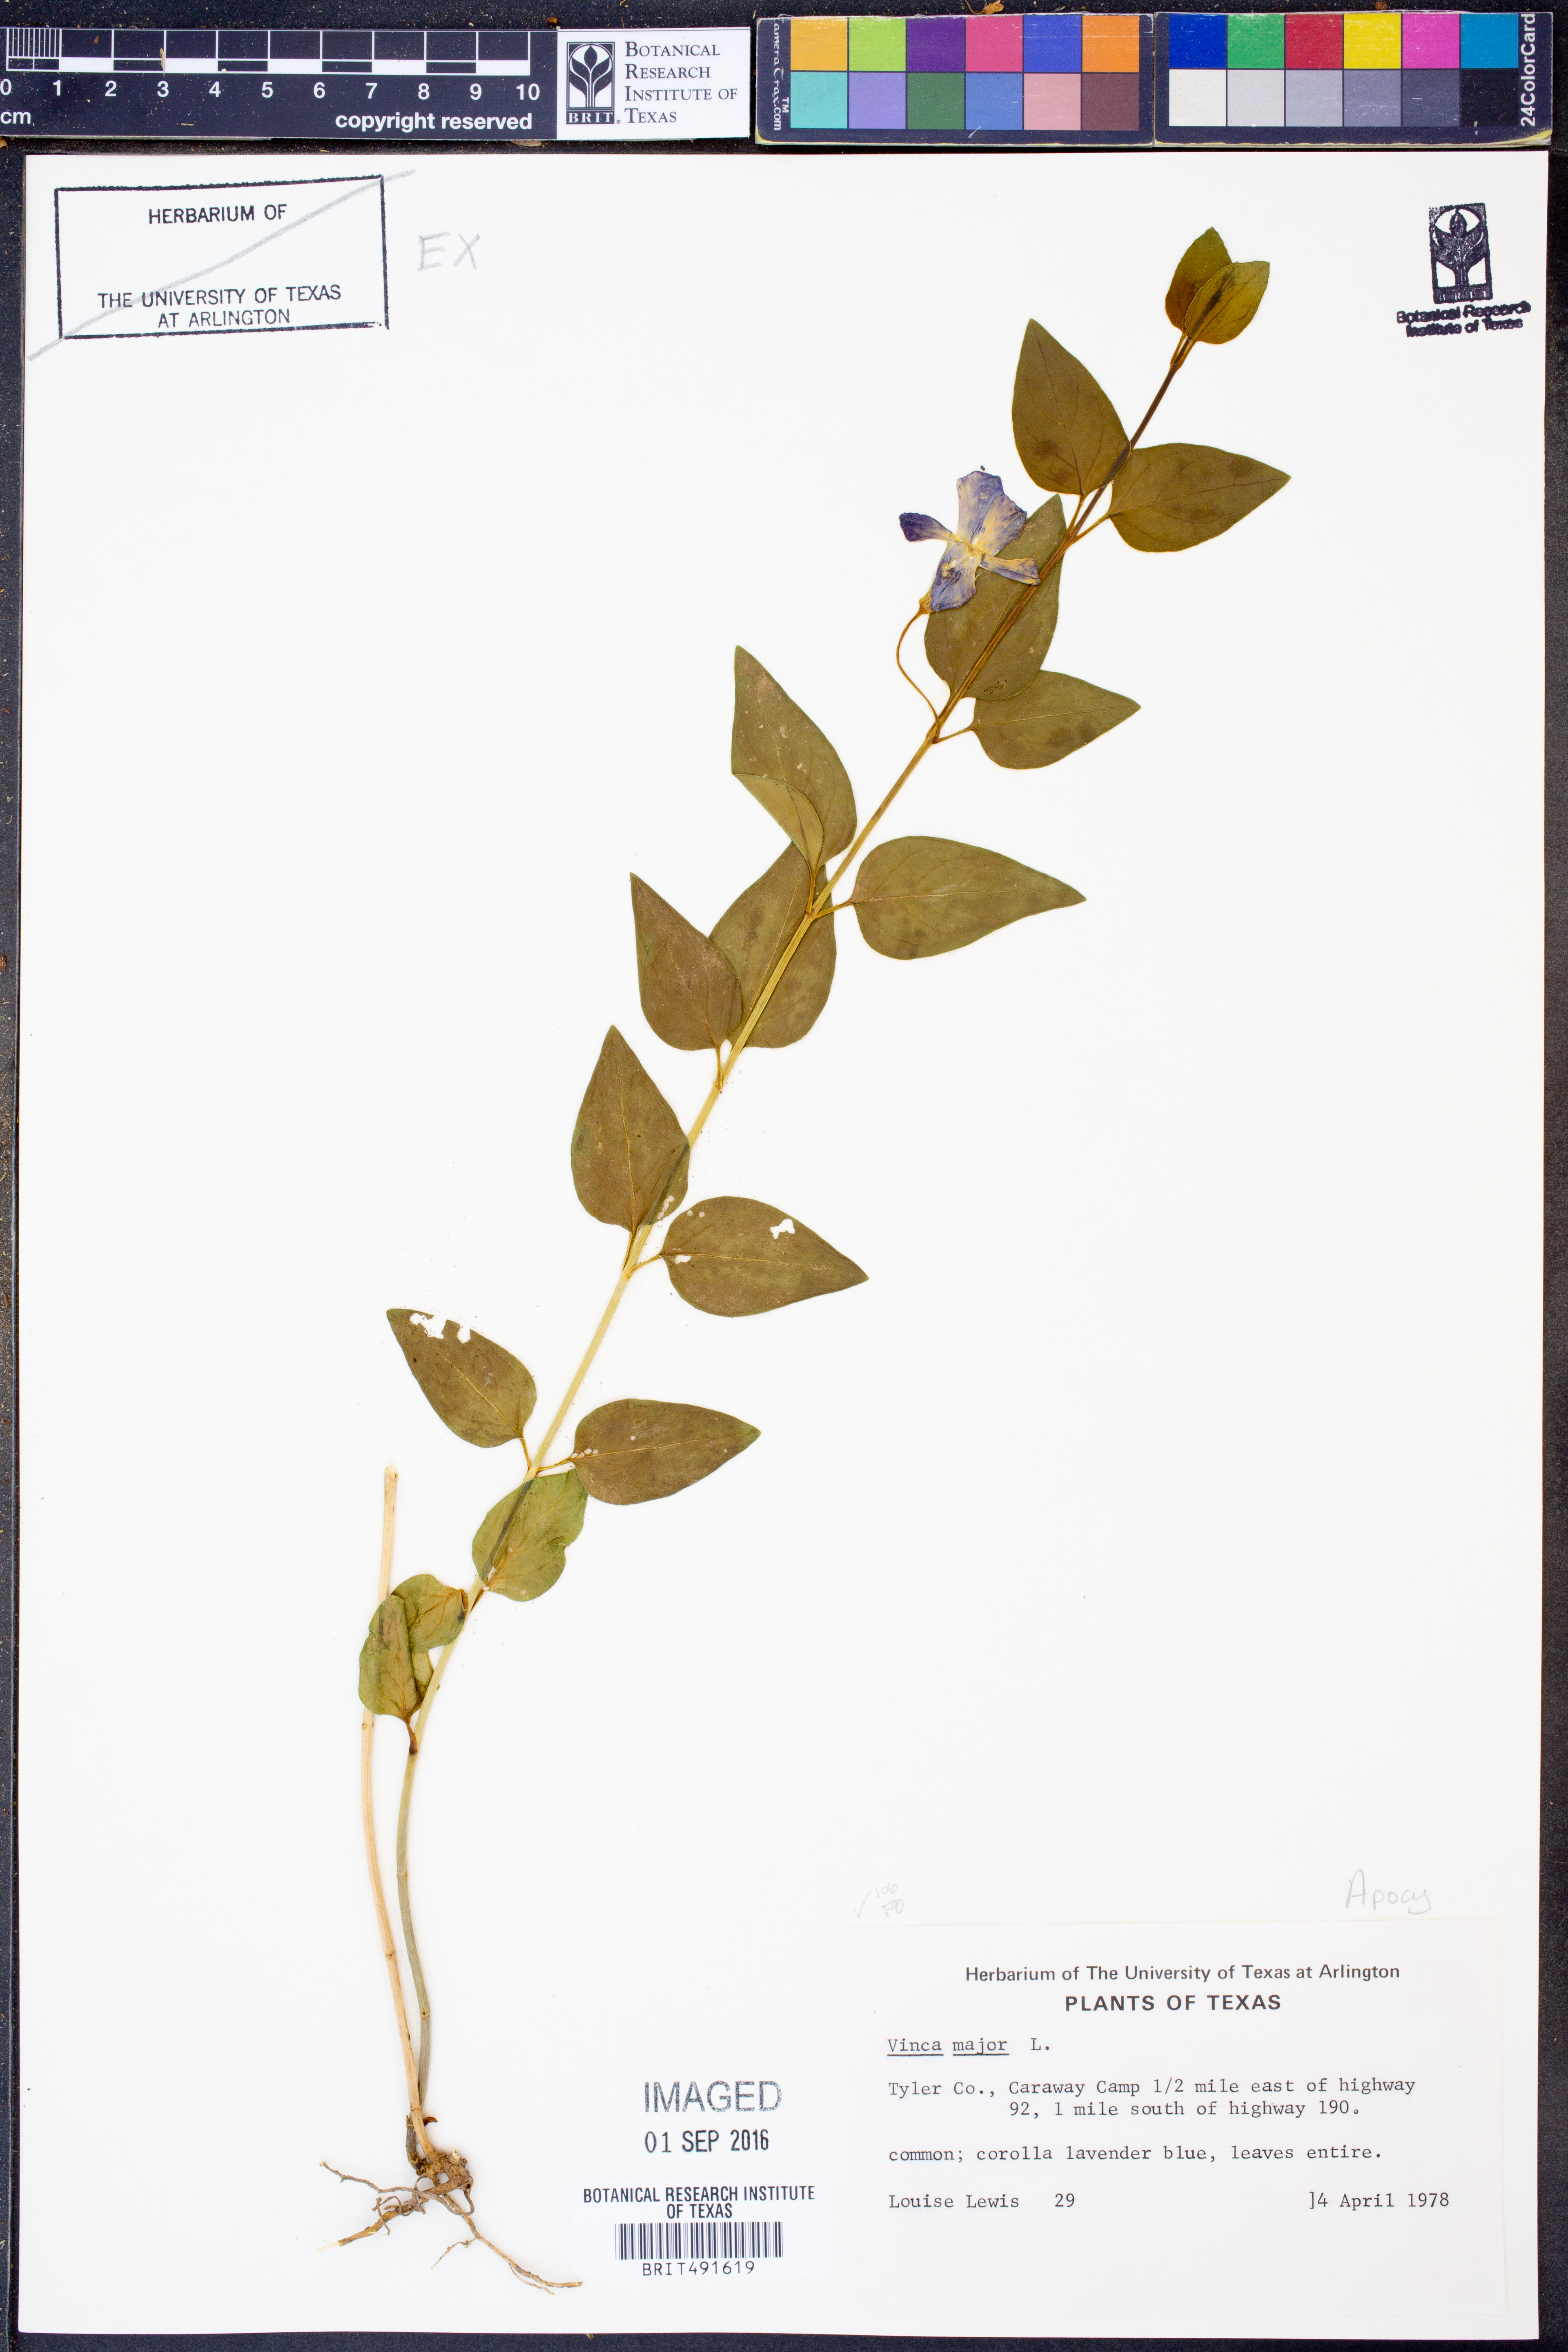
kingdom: Plantae
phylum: Tracheophyta
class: Magnoliopsida
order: Gentianales
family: Apocynaceae
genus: Vinca
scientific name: Vinca major
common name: Greater periwinkle
